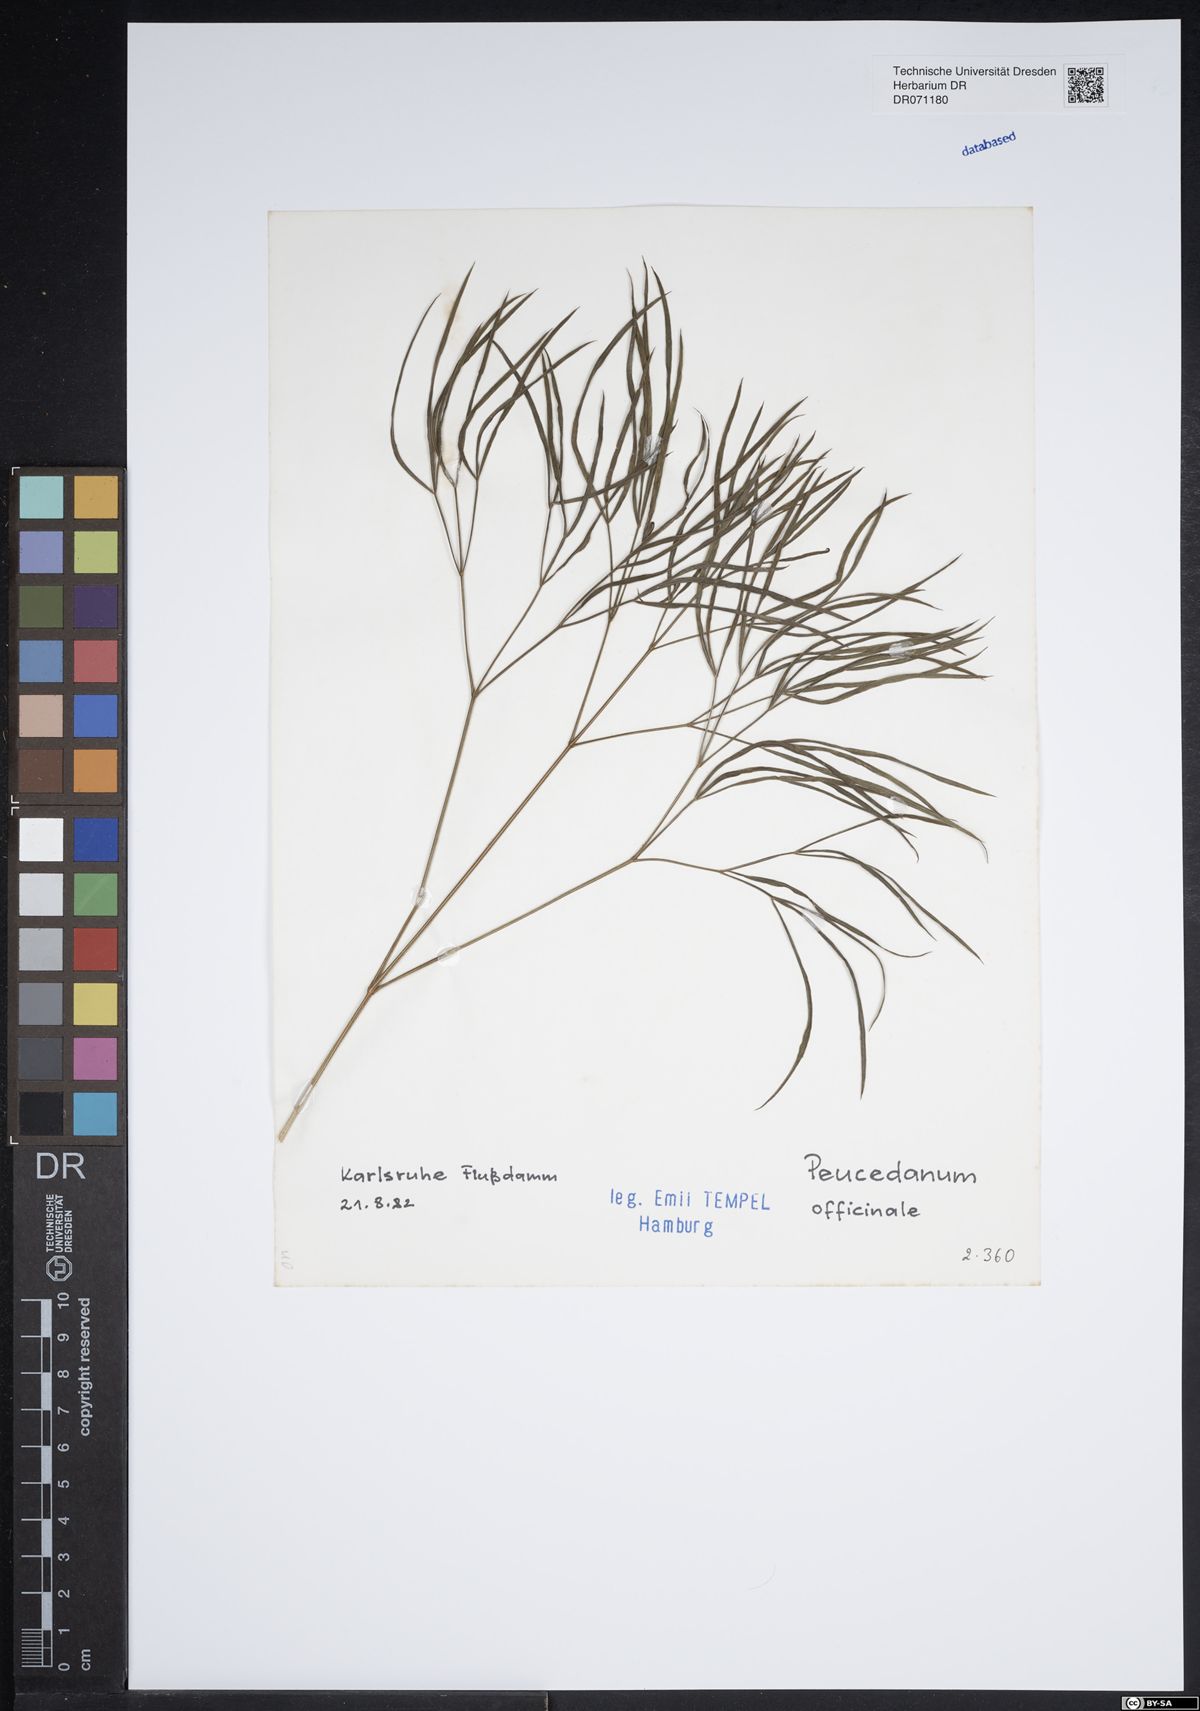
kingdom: Plantae
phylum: Tracheophyta
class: Magnoliopsida
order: Apiales
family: Apiaceae
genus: Peucedanum
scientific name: Peucedanum officinale
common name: Sulphurweed
